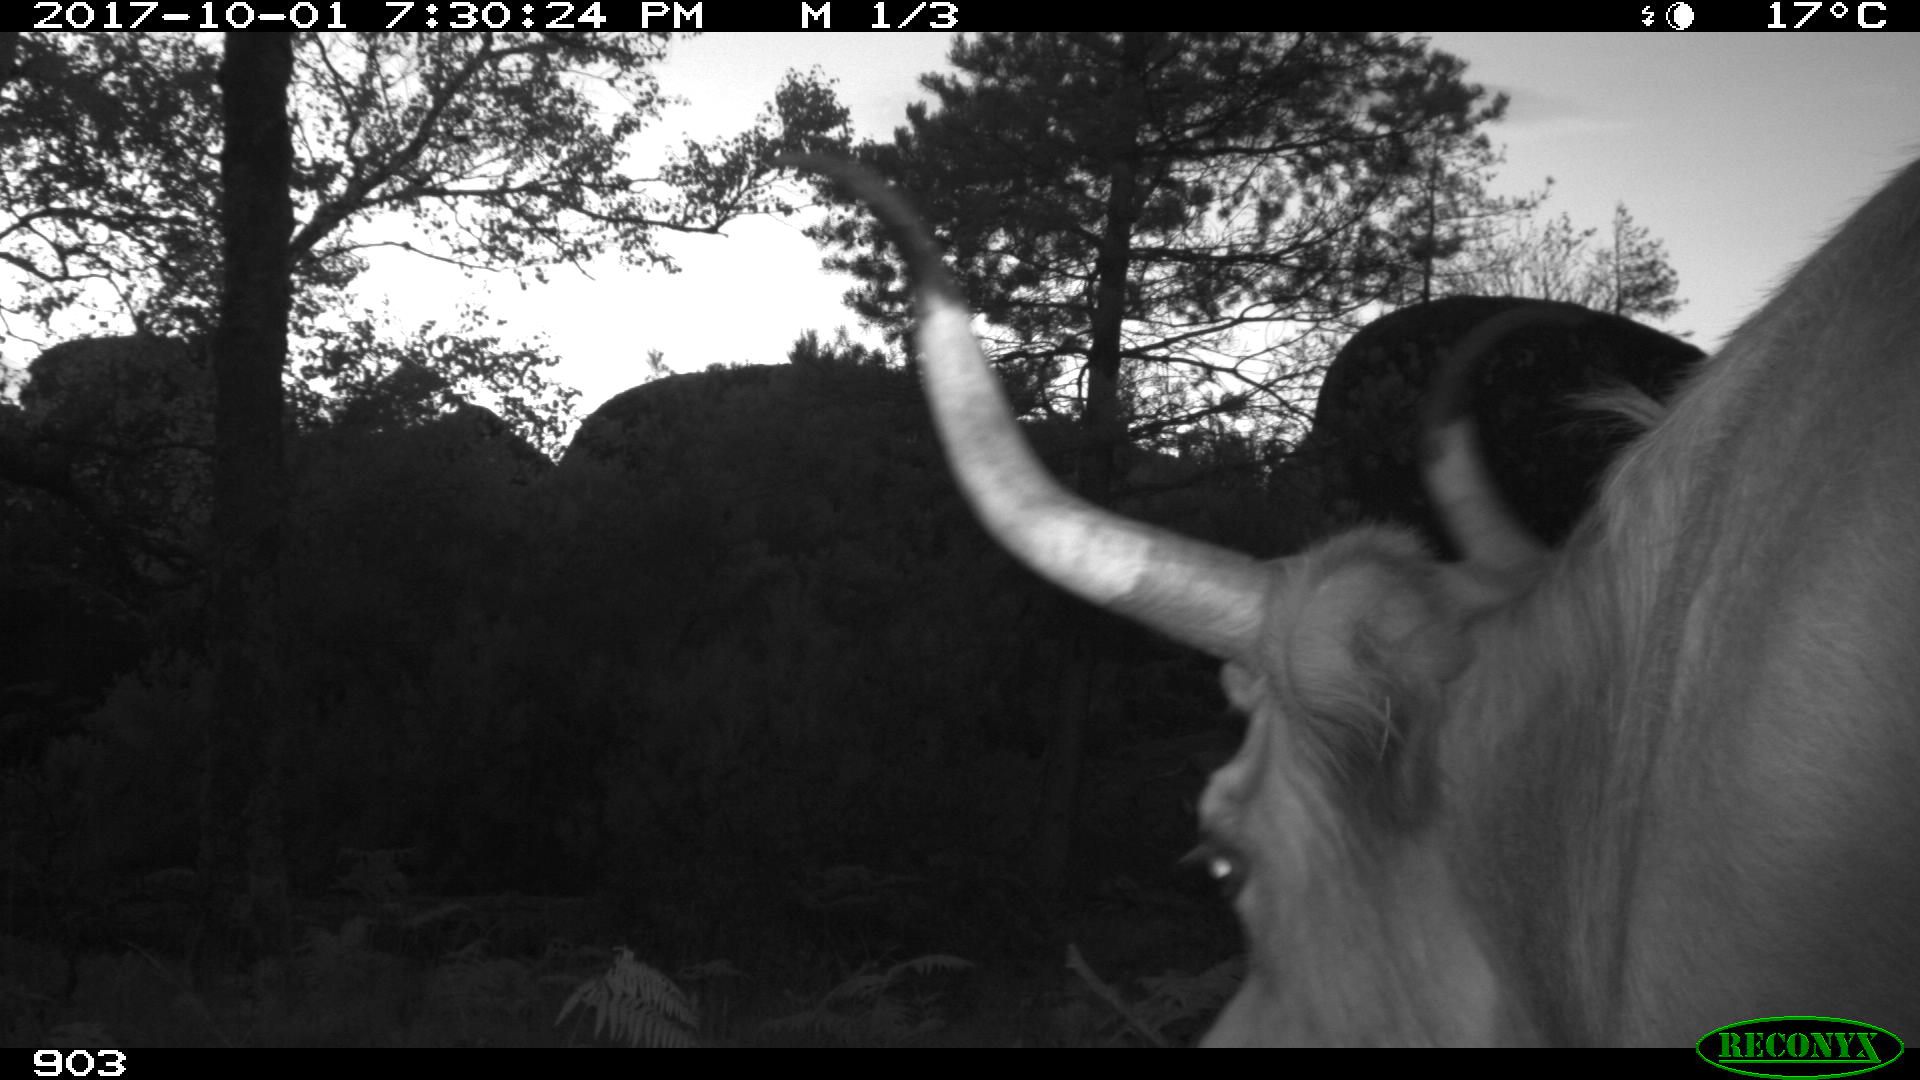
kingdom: Animalia
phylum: Chordata
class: Mammalia
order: Artiodactyla
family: Bovidae
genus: Bos
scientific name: Bos taurus
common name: Domesticated cattle
